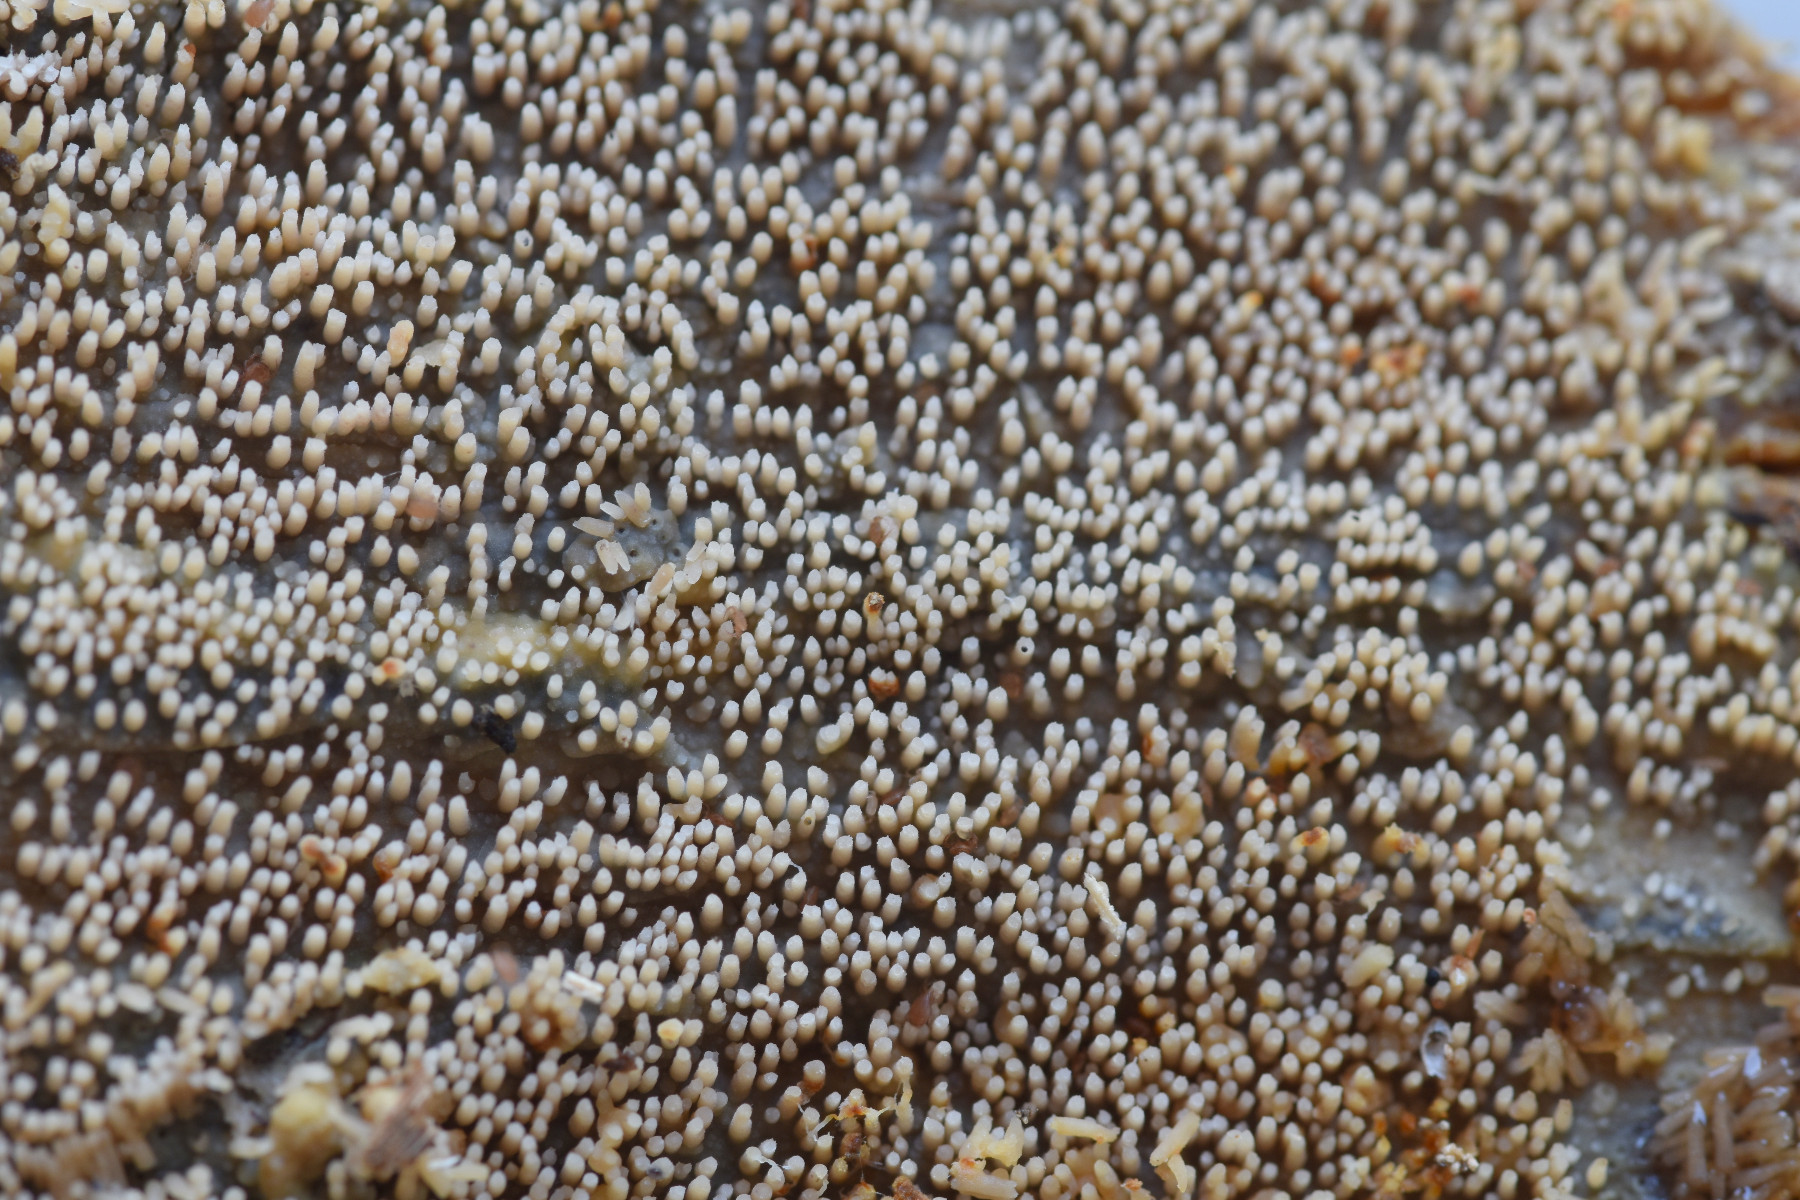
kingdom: Fungi
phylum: Basidiomycota
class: Agaricomycetes
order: Polyporales
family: Meruliaceae
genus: Mycoacia
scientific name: Mycoacia fuscoatra
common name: mørk vokspig
